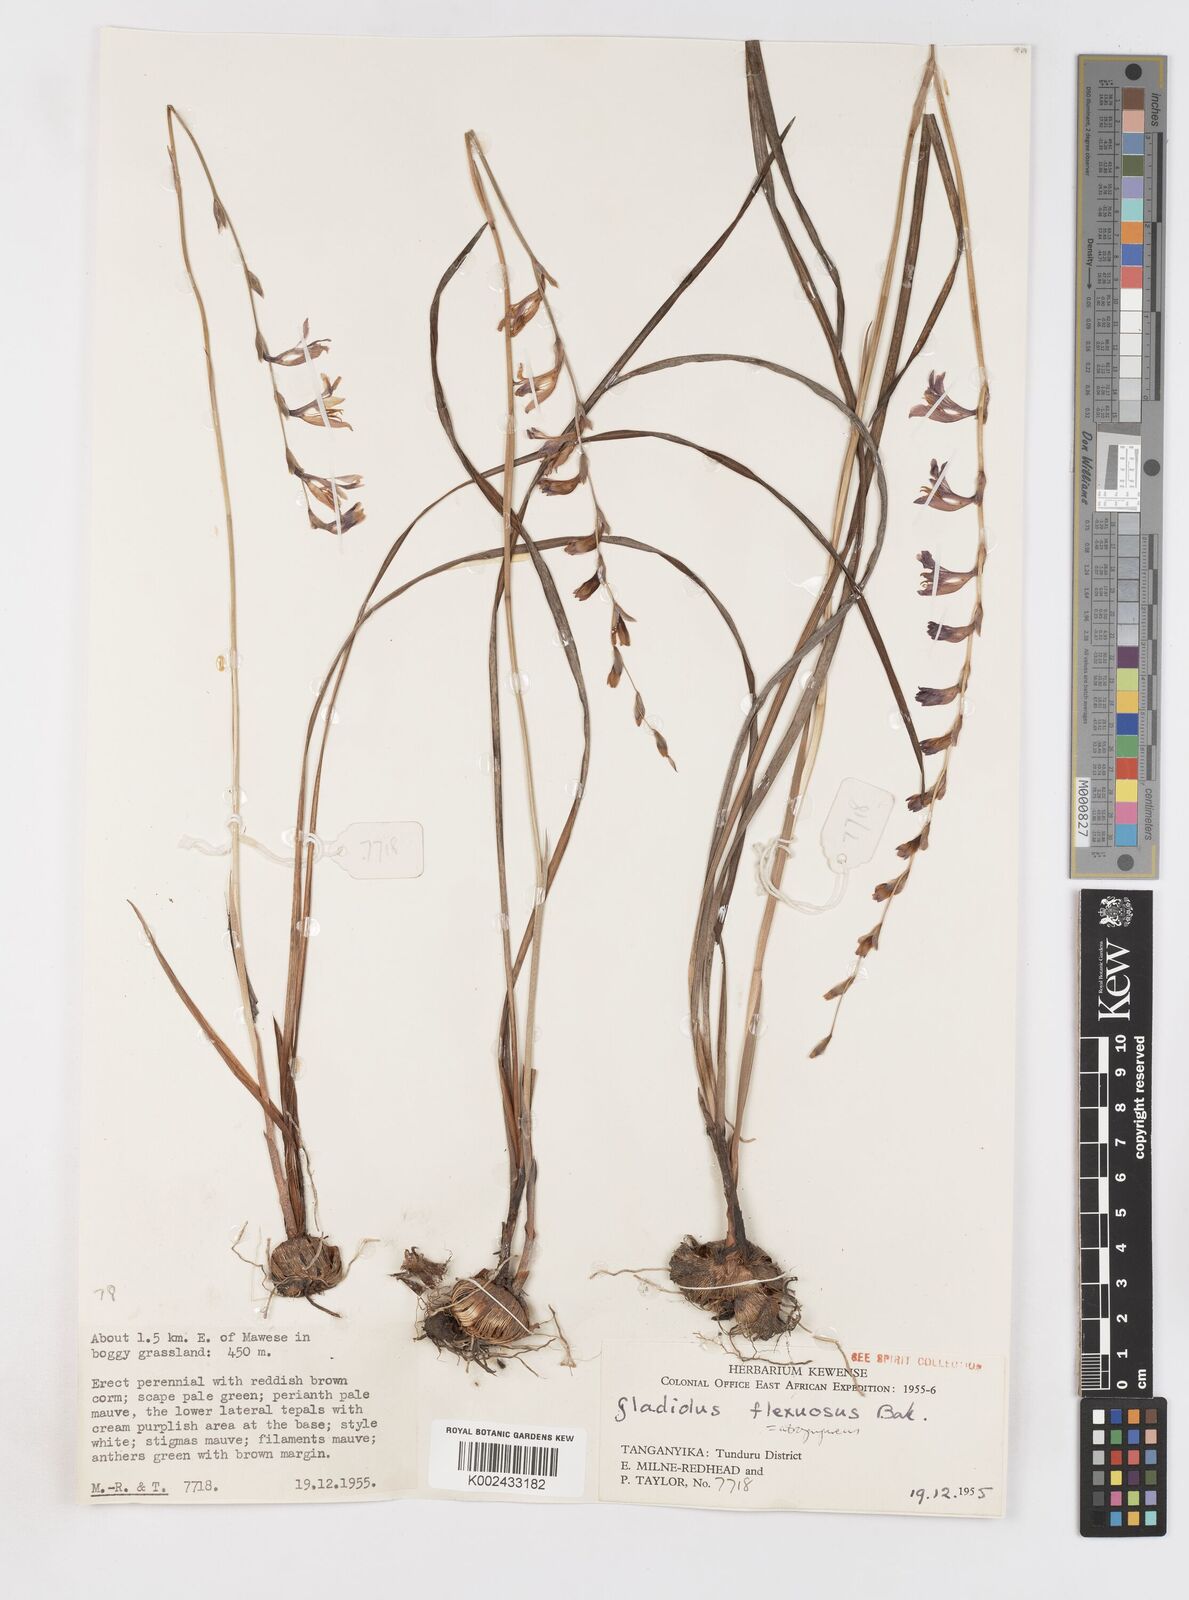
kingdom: Plantae
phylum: Tracheophyta
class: Liliopsida
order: Asparagales
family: Iridaceae
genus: Gladiolus
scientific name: Gladiolus atropurpureus
